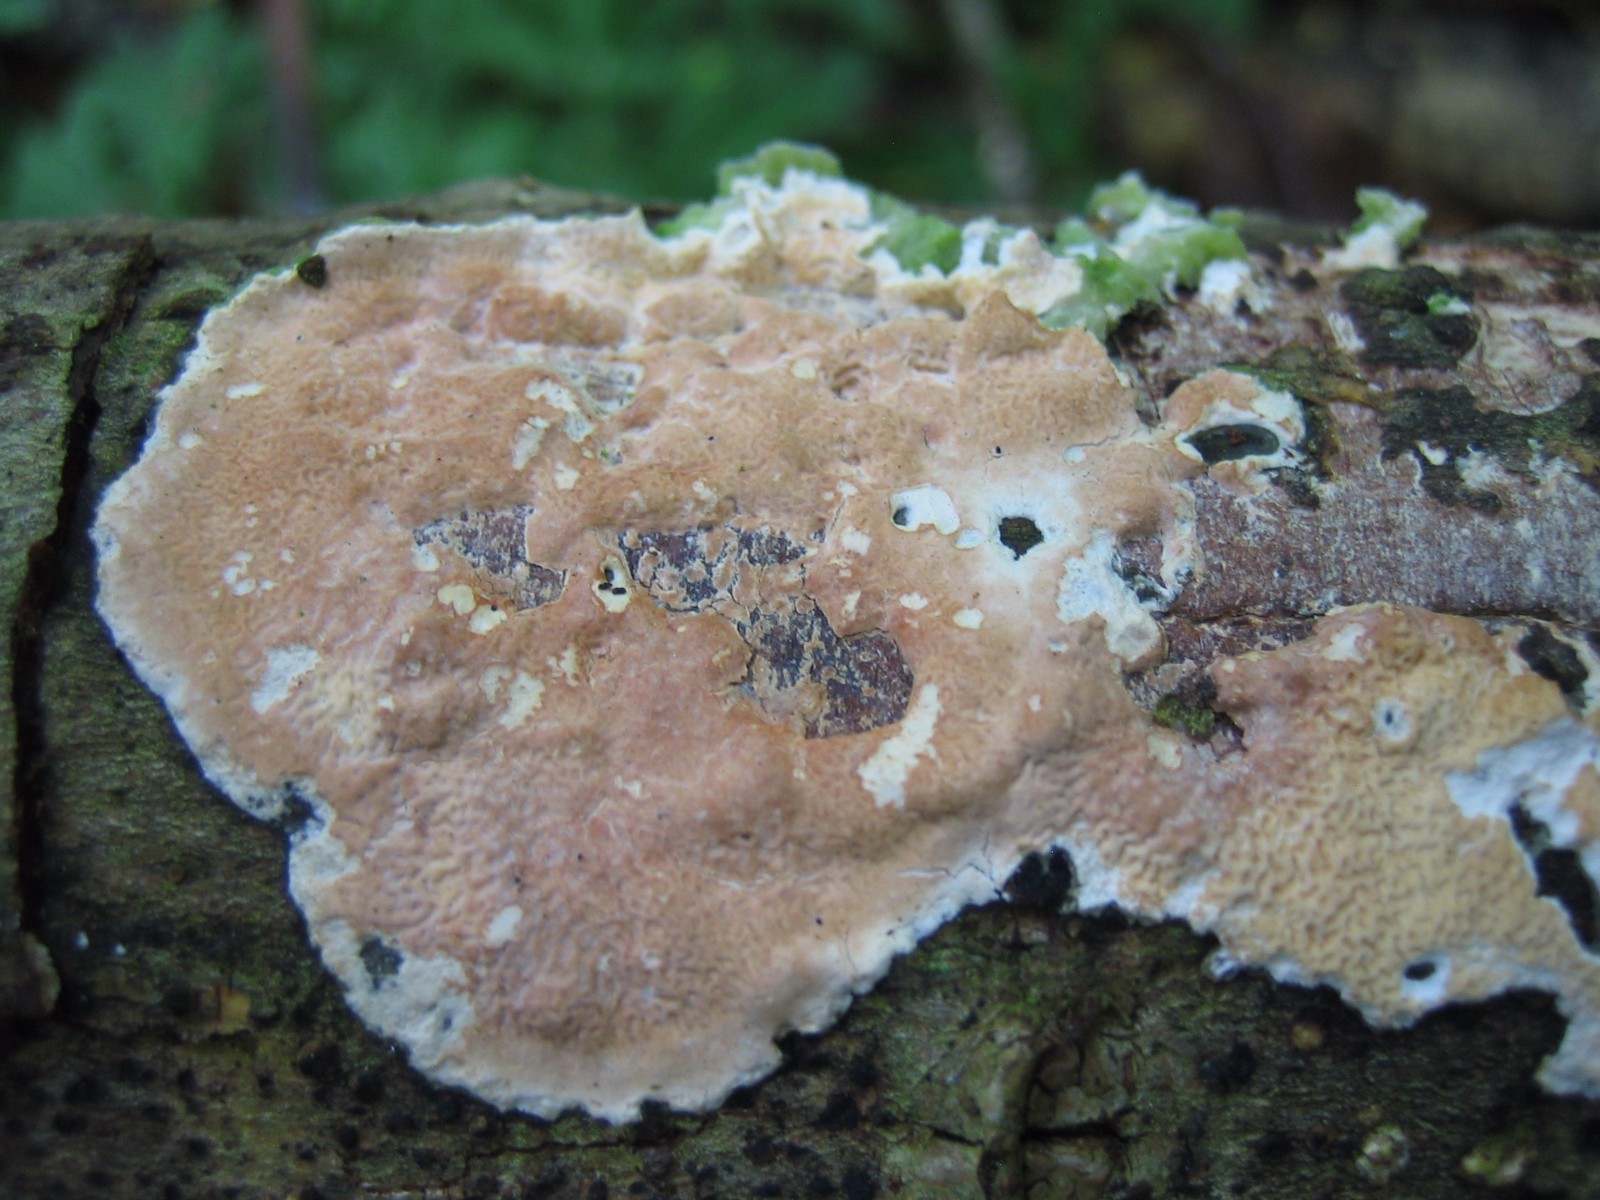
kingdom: Fungi
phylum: Basidiomycota
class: Agaricomycetes
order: Polyporales
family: Irpicaceae
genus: Byssomerulius
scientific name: Byssomerulius corium
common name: læder-åresvamp
